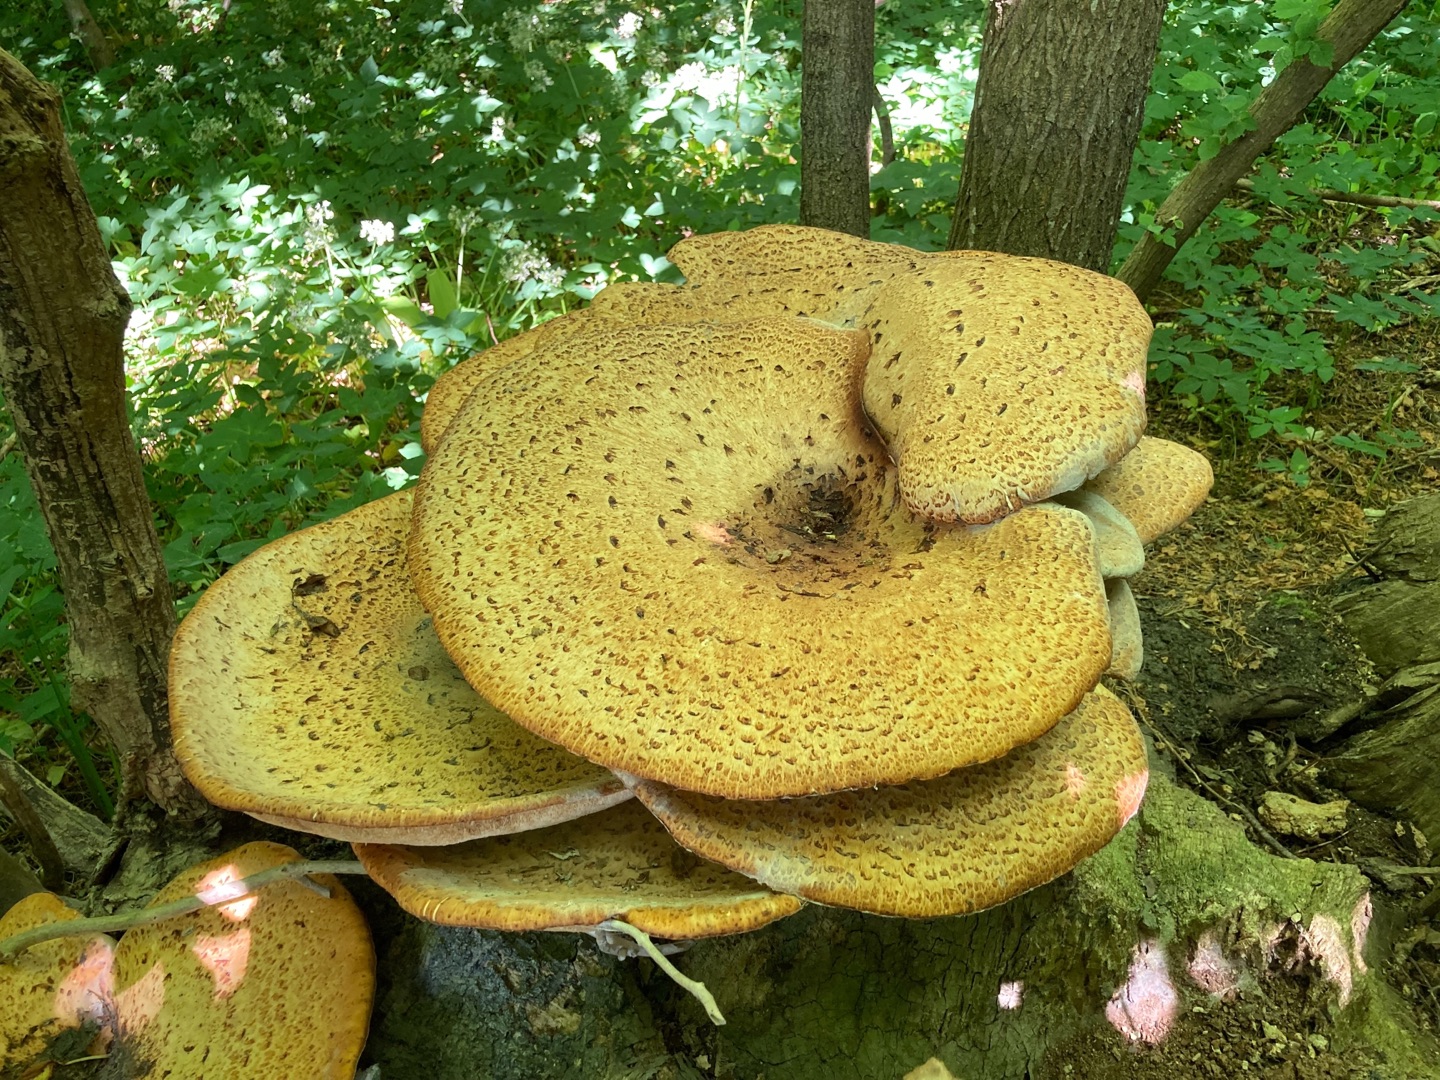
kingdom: Fungi
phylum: Basidiomycota
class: Agaricomycetes
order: Polyporales
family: Polyporaceae
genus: Cerioporus
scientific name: Cerioporus squamosus
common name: Skællet stilkporesvamp
